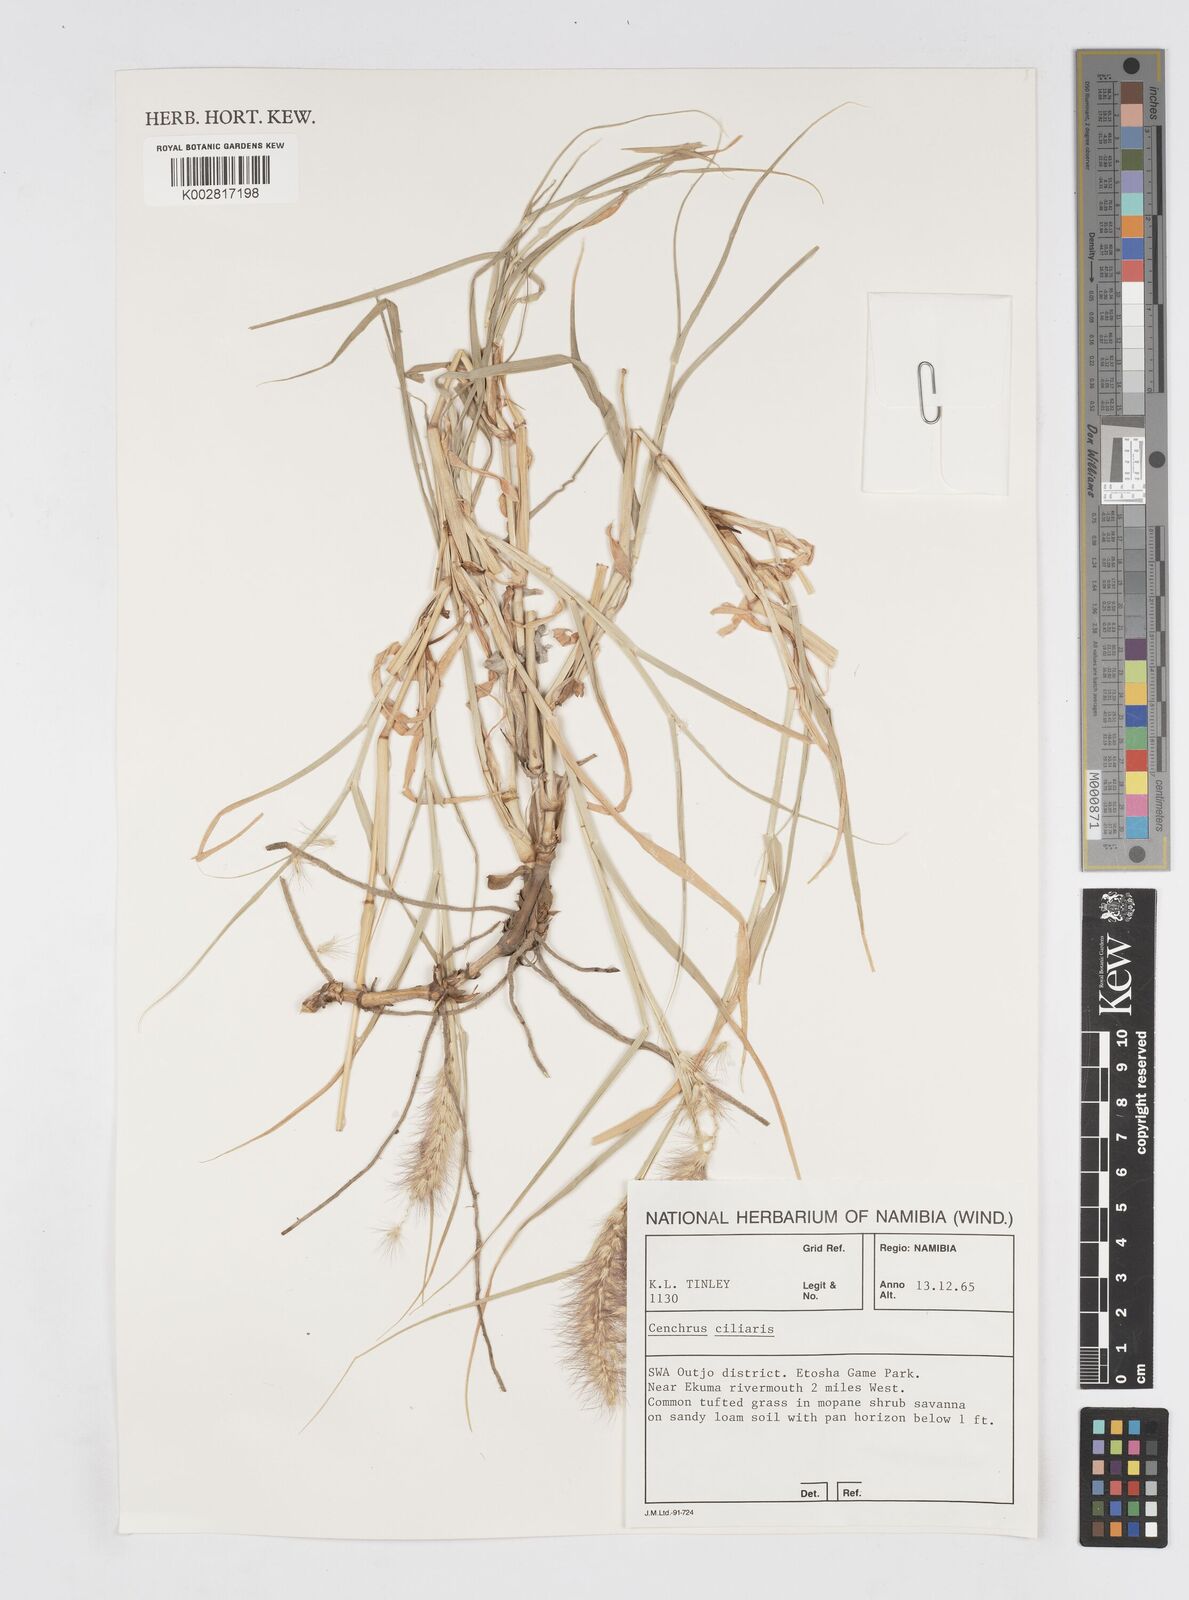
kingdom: Plantae
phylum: Tracheophyta
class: Liliopsida
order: Poales
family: Poaceae
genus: Cenchrus
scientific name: Cenchrus ciliaris
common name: Buffelgrass
